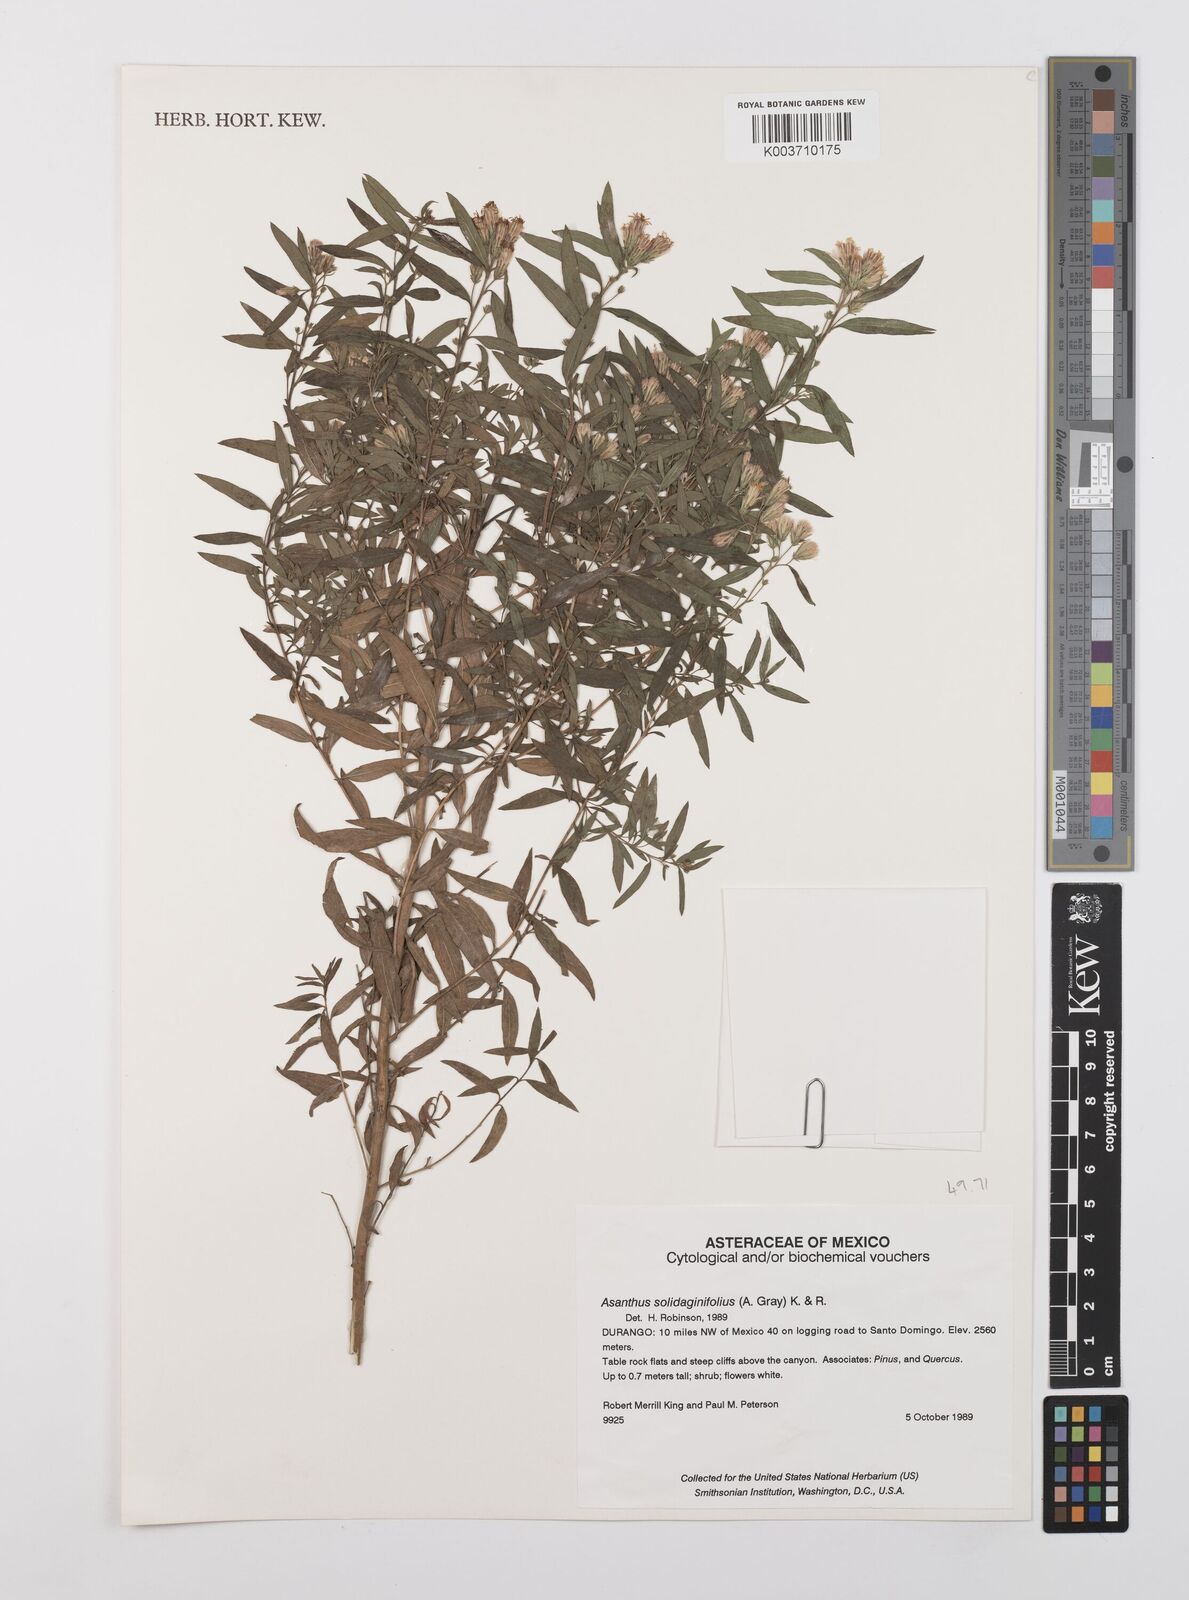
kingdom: Plantae
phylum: Tracheophyta
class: Magnoliopsida
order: Asterales
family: Asteraceae
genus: Asanthus
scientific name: Asanthus solidaginifolius
